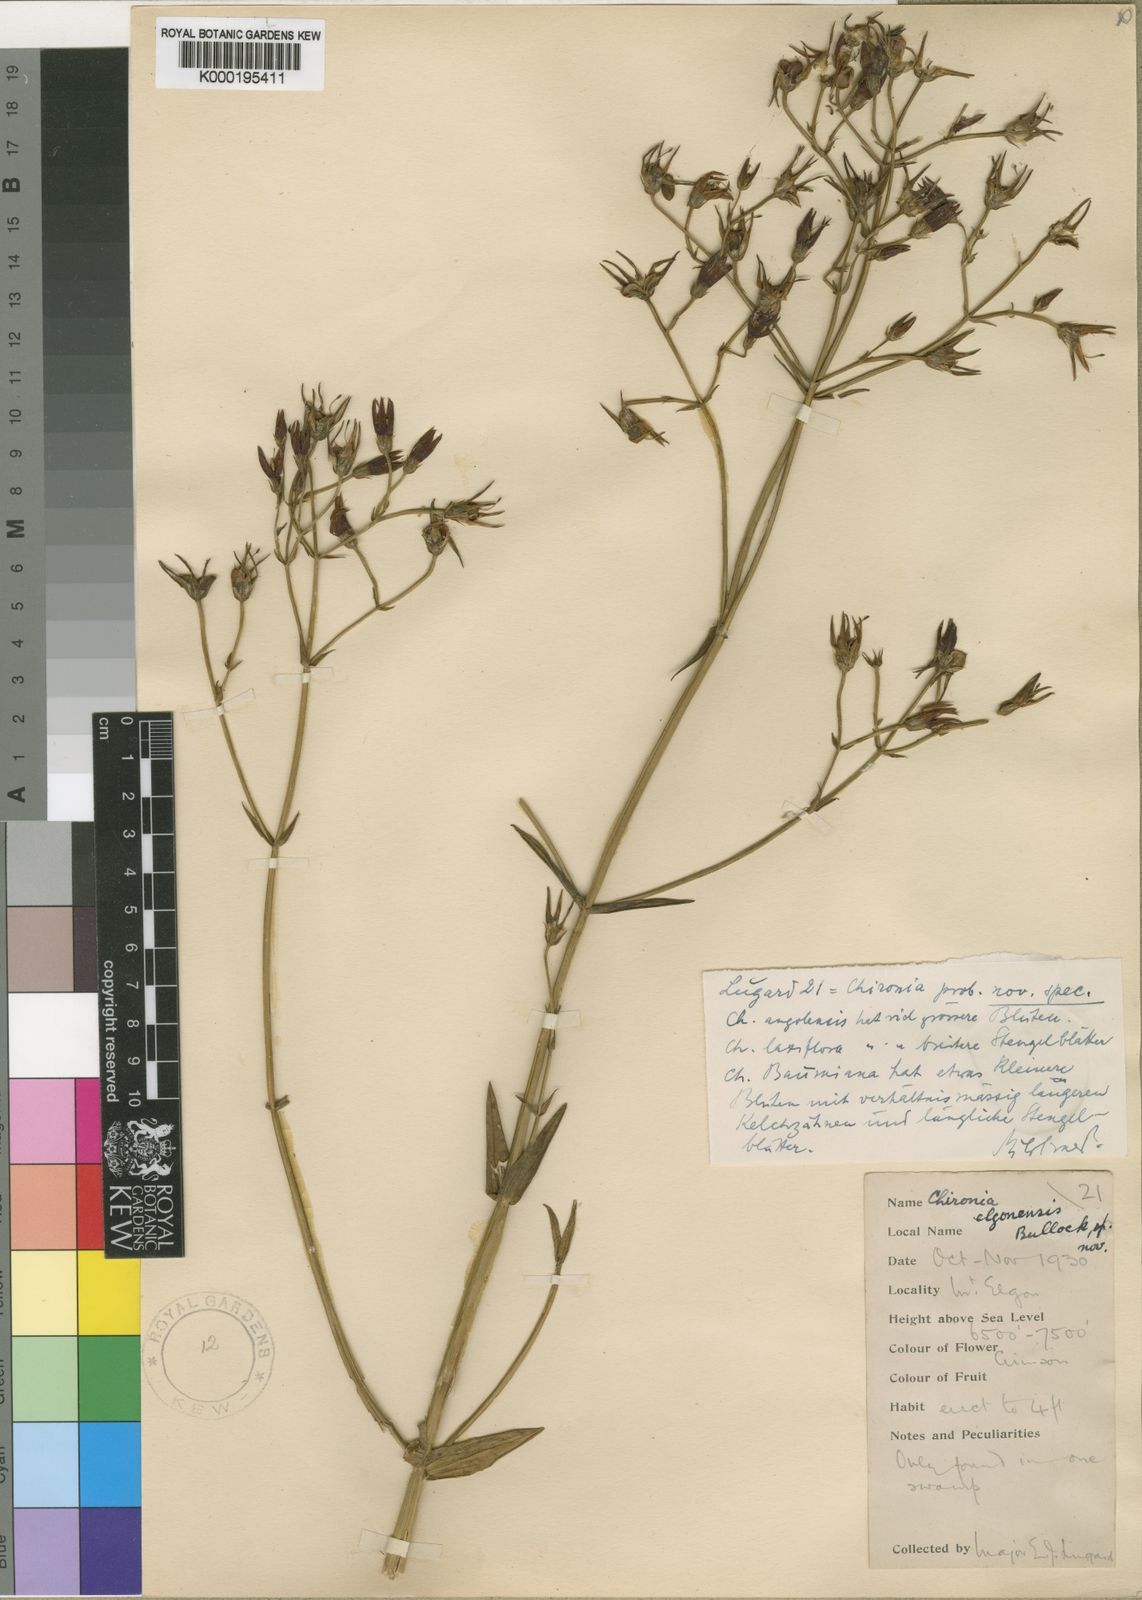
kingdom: Plantae
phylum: Tracheophyta
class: Magnoliopsida
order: Gentianales
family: Gentianaceae
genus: Chironia
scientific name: Chironia elgonensis
